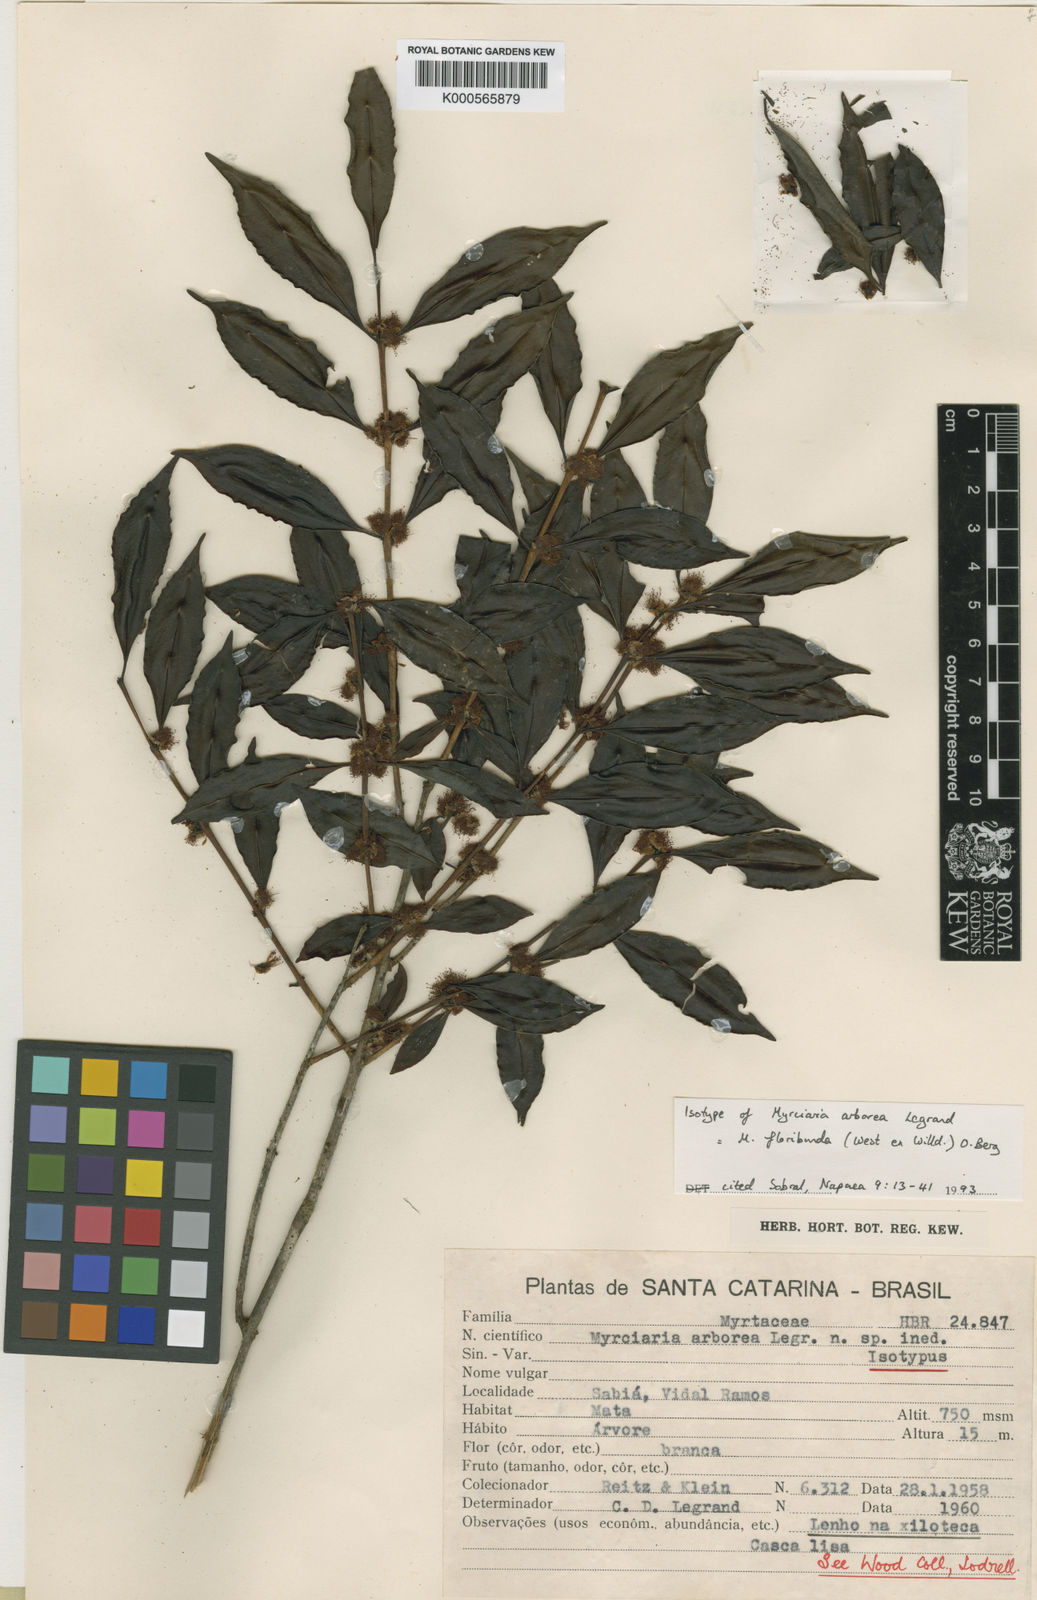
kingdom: Plantae
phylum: Tracheophyta
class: Magnoliopsida
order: Myrtales
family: Myrtaceae
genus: Myrciaria
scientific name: Myrciaria floribunda
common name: Guavaberry
